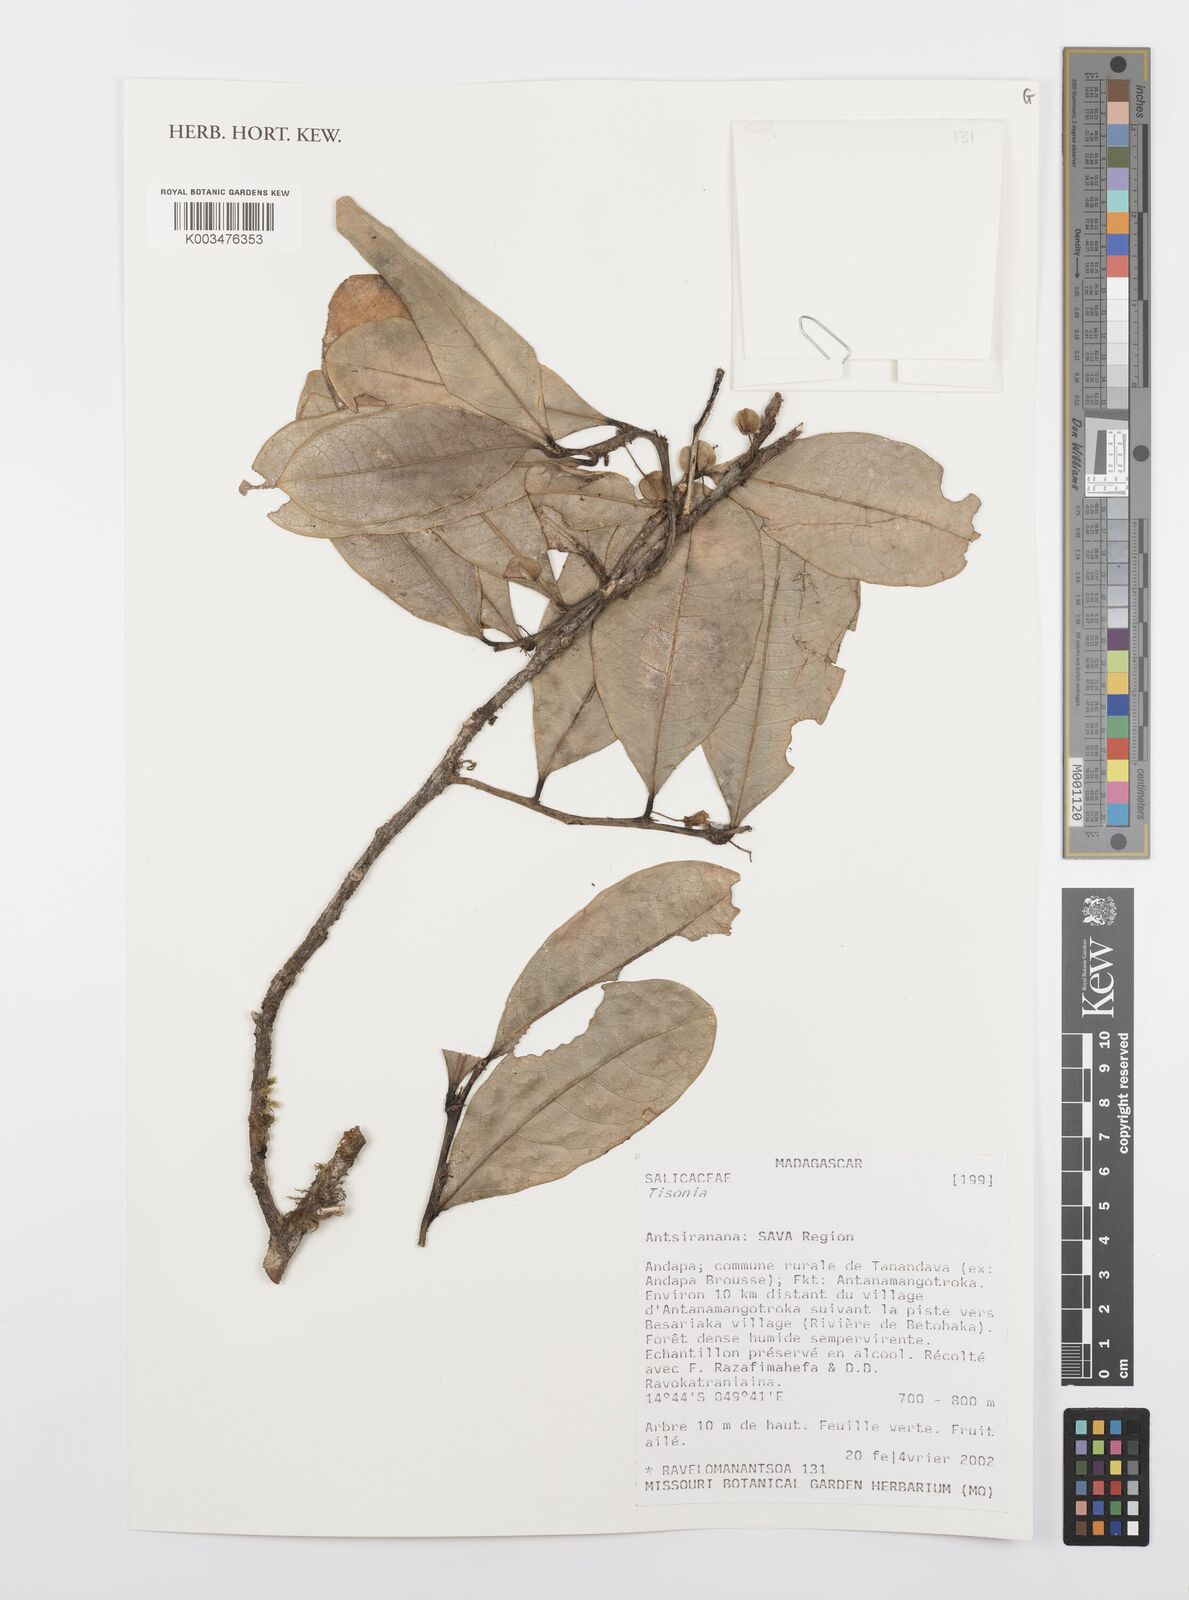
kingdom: Plantae
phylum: Tracheophyta
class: Magnoliopsida
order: Malpighiales
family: Salicaceae
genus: Tisonia
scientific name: Tisonia
